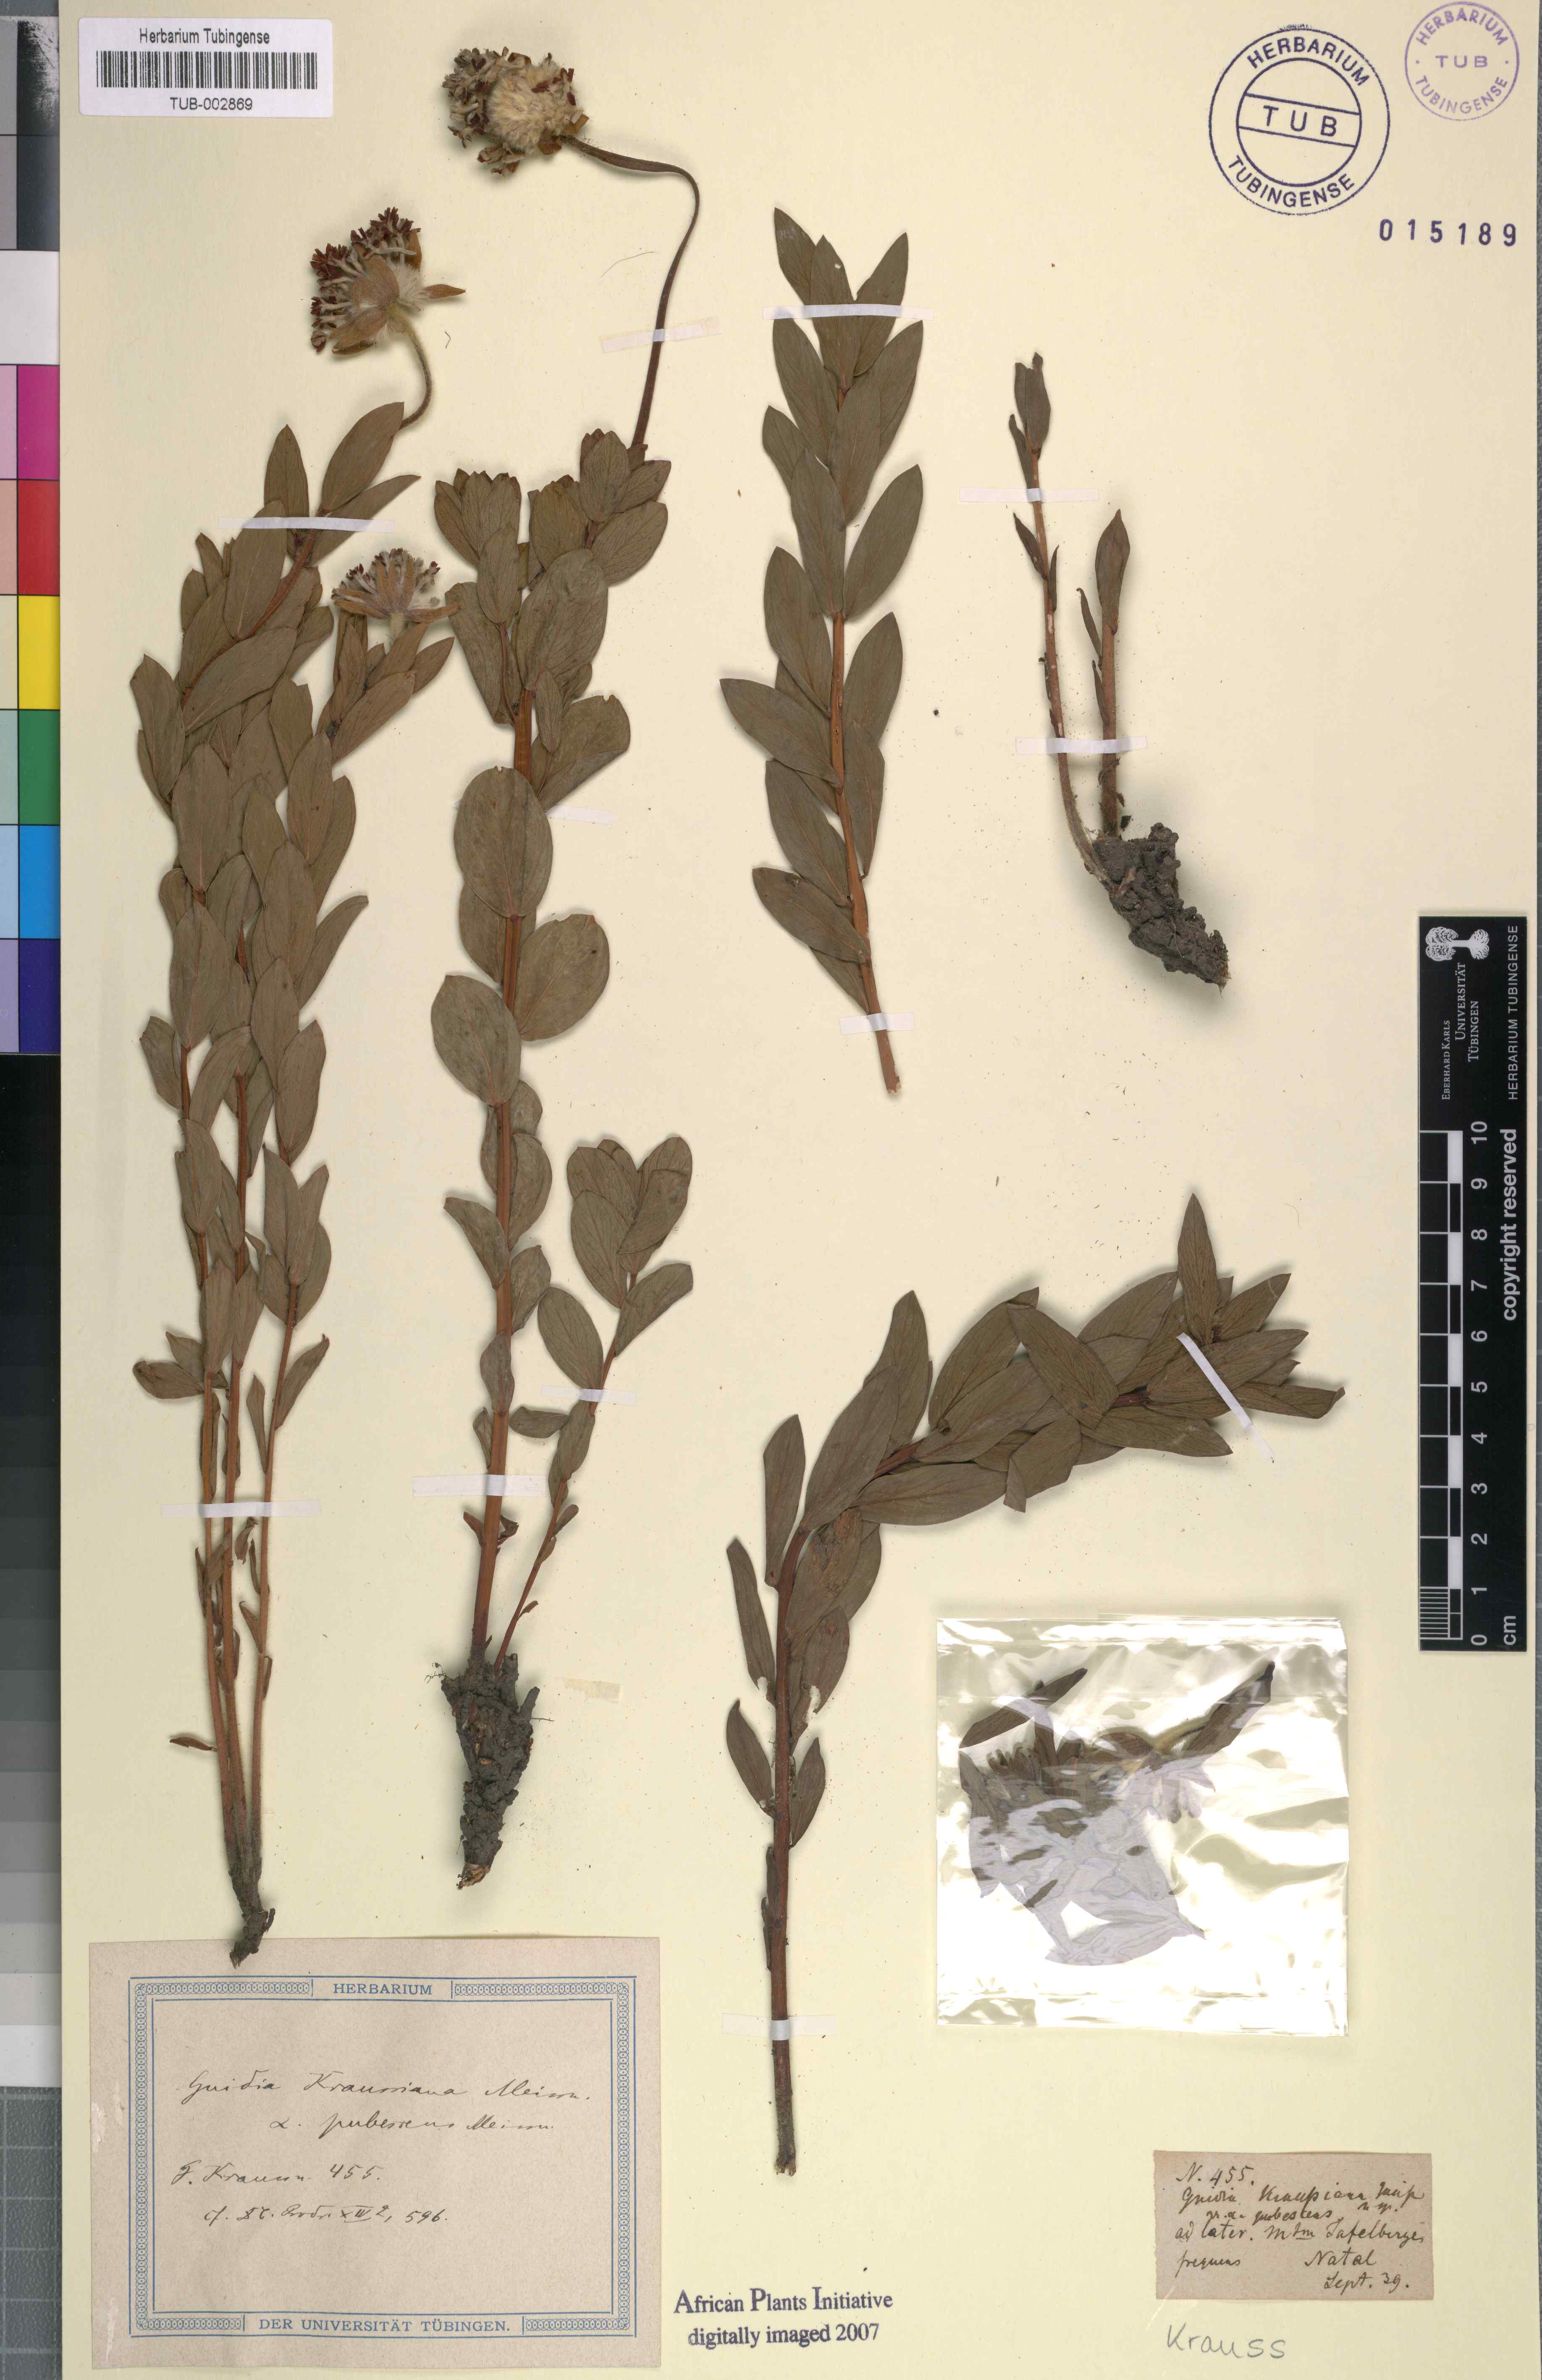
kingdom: Plantae
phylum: Tracheophyta
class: Magnoliopsida
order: Malvales
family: Thymelaeaceae
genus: Gnidia
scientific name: Gnidia kraussiana
